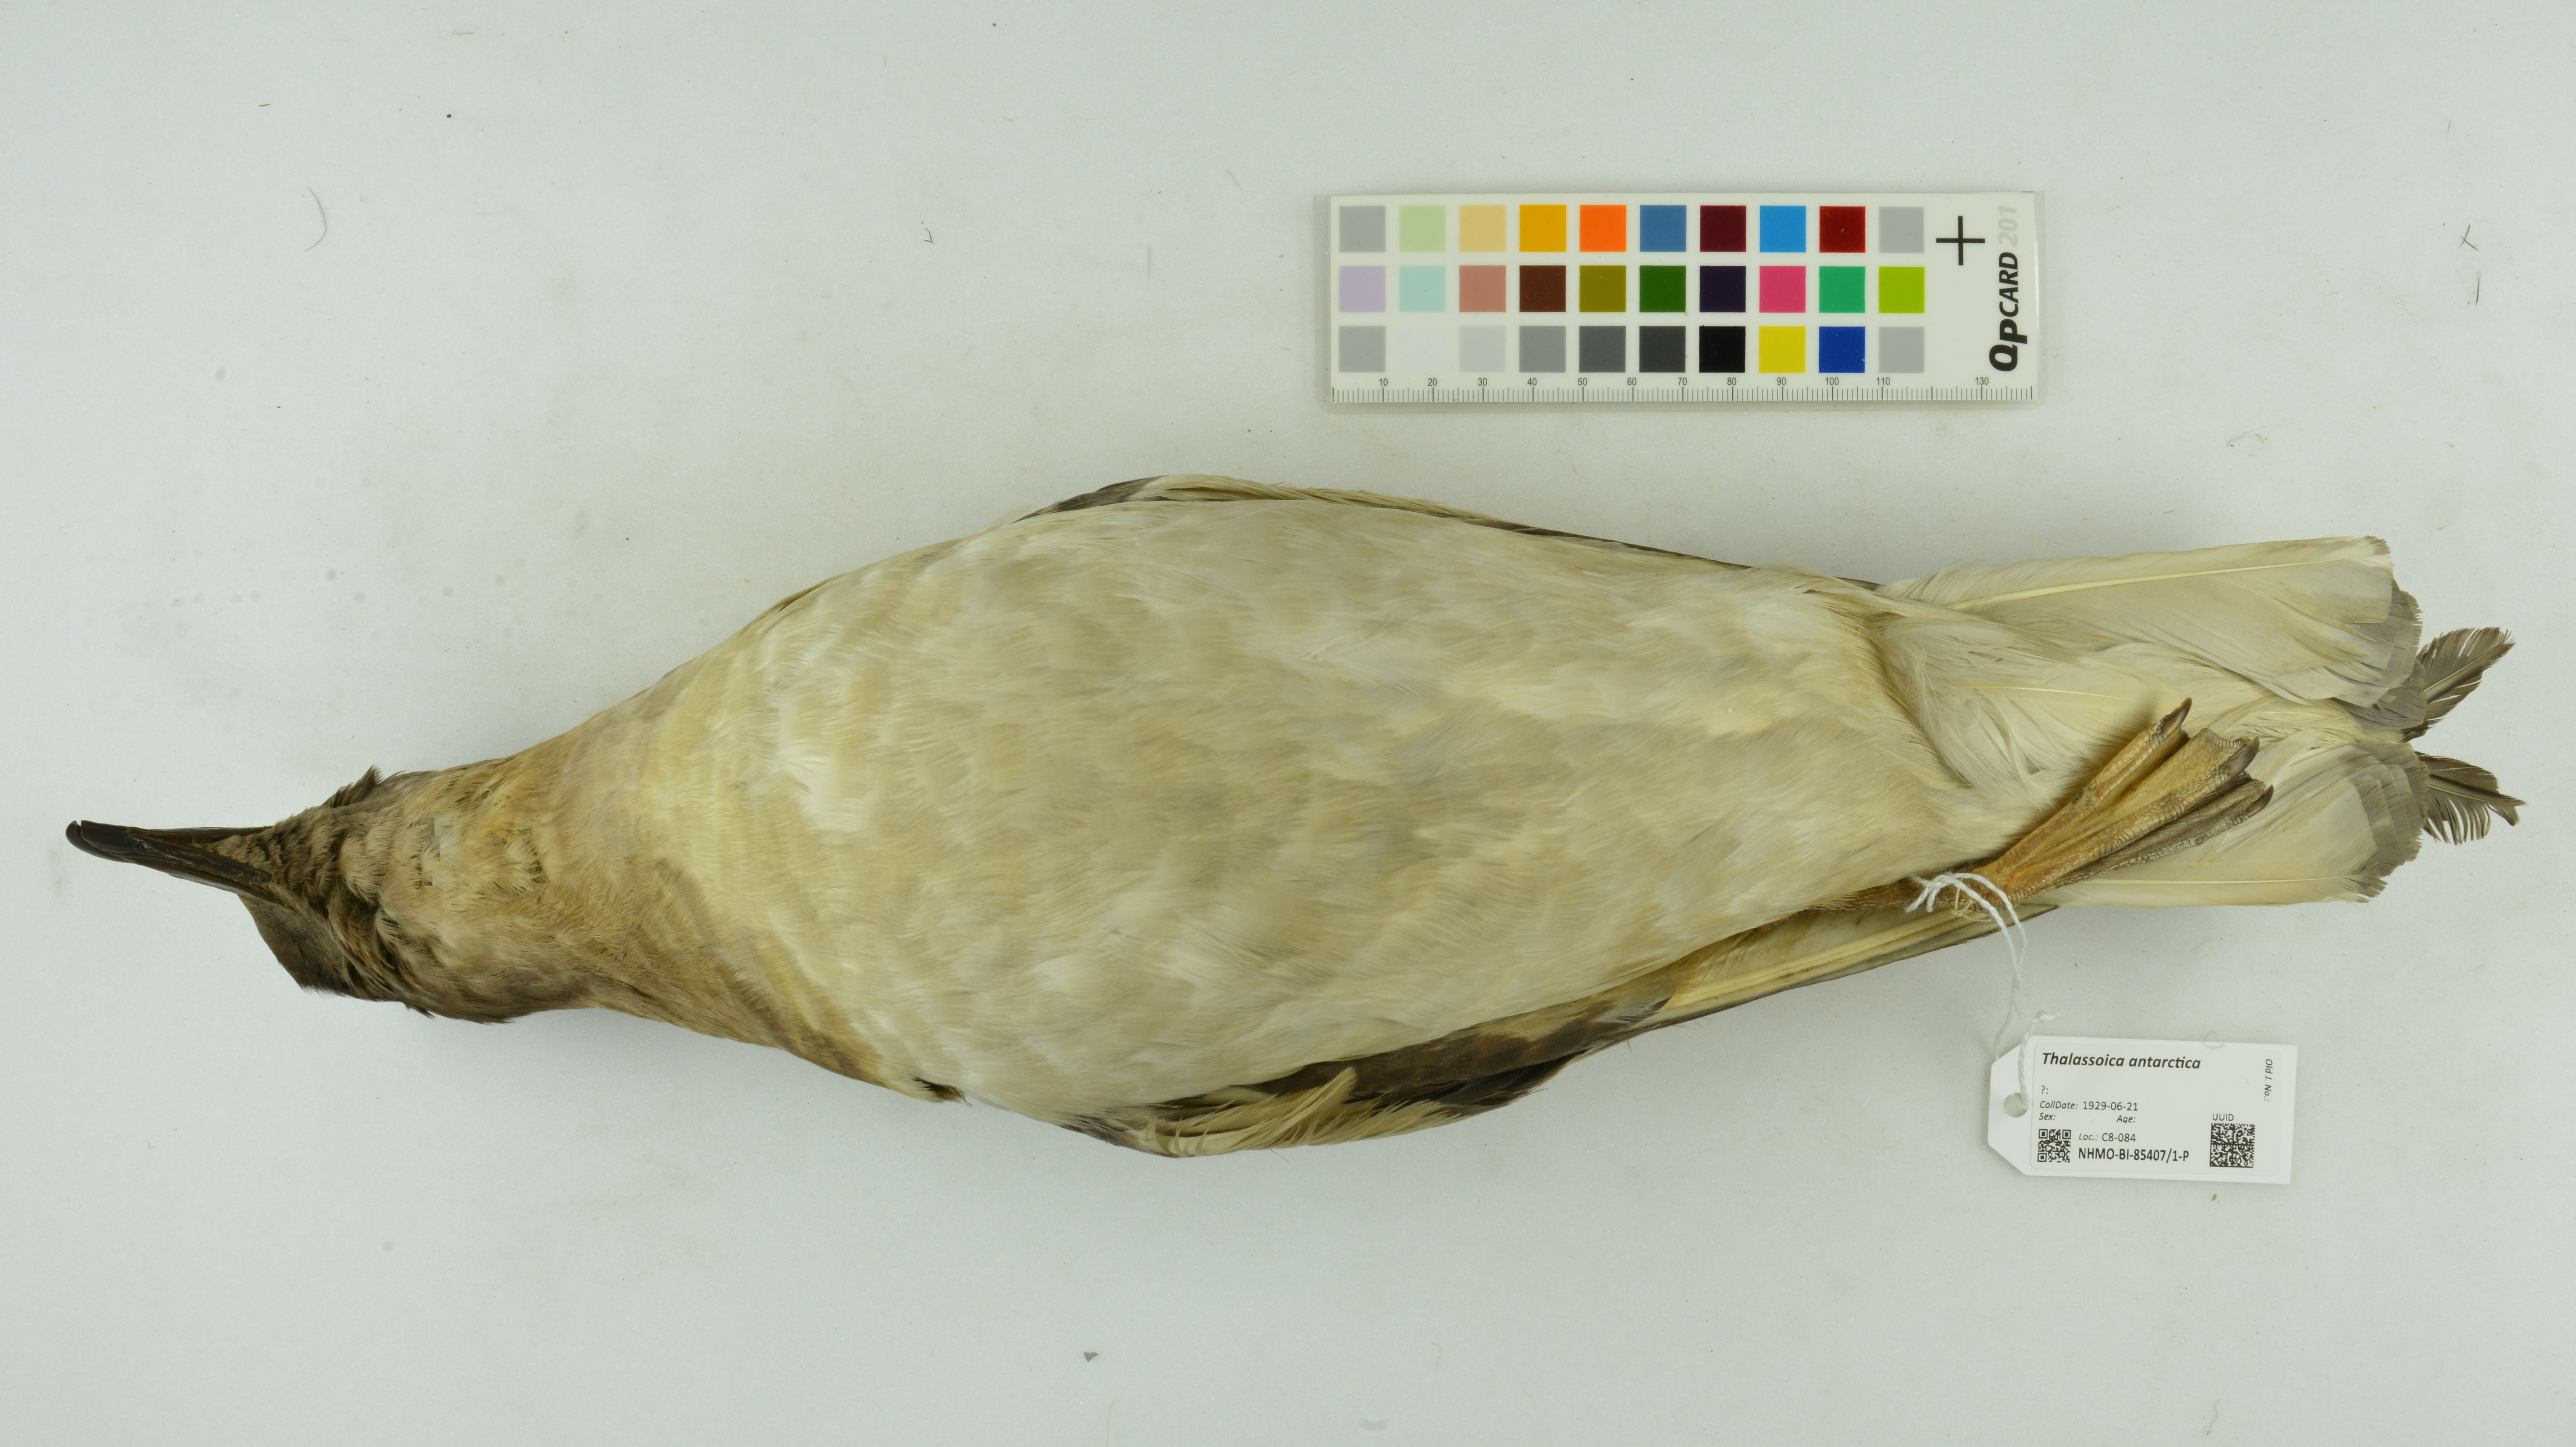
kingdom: Animalia
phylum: Chordata
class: Aves
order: Procellariiformes
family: Procellariidae
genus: Thalassoica
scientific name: Thalassoica antarctica
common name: Antarctic petrel
